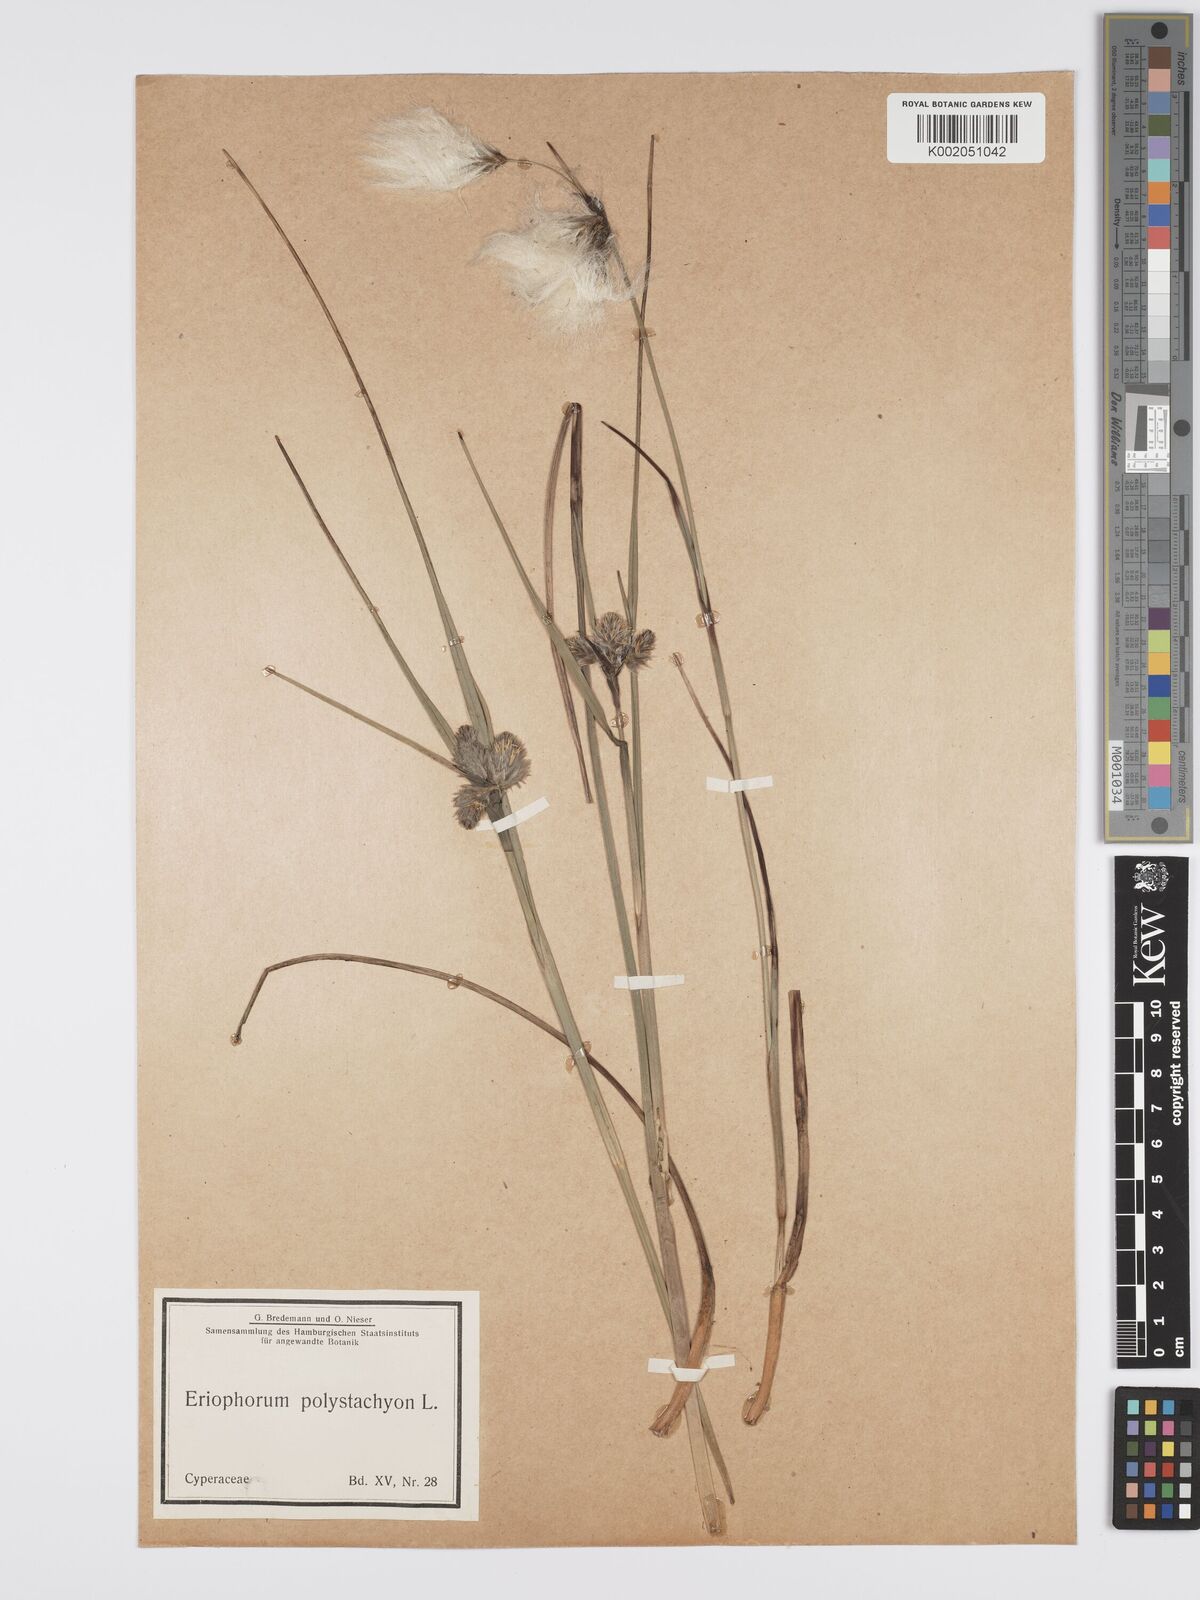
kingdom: Plantae
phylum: Tracheophyta
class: Liliopsida
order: Poales
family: Cyperaceae
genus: Eriophorum
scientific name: Eriophorum angustifolium
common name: Common cottongrass
